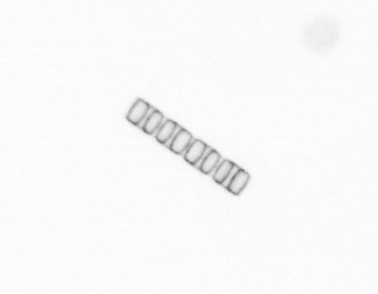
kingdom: Chromista
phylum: Ochrophyta
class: Bacillariophyceae
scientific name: Bacillariophyceae
